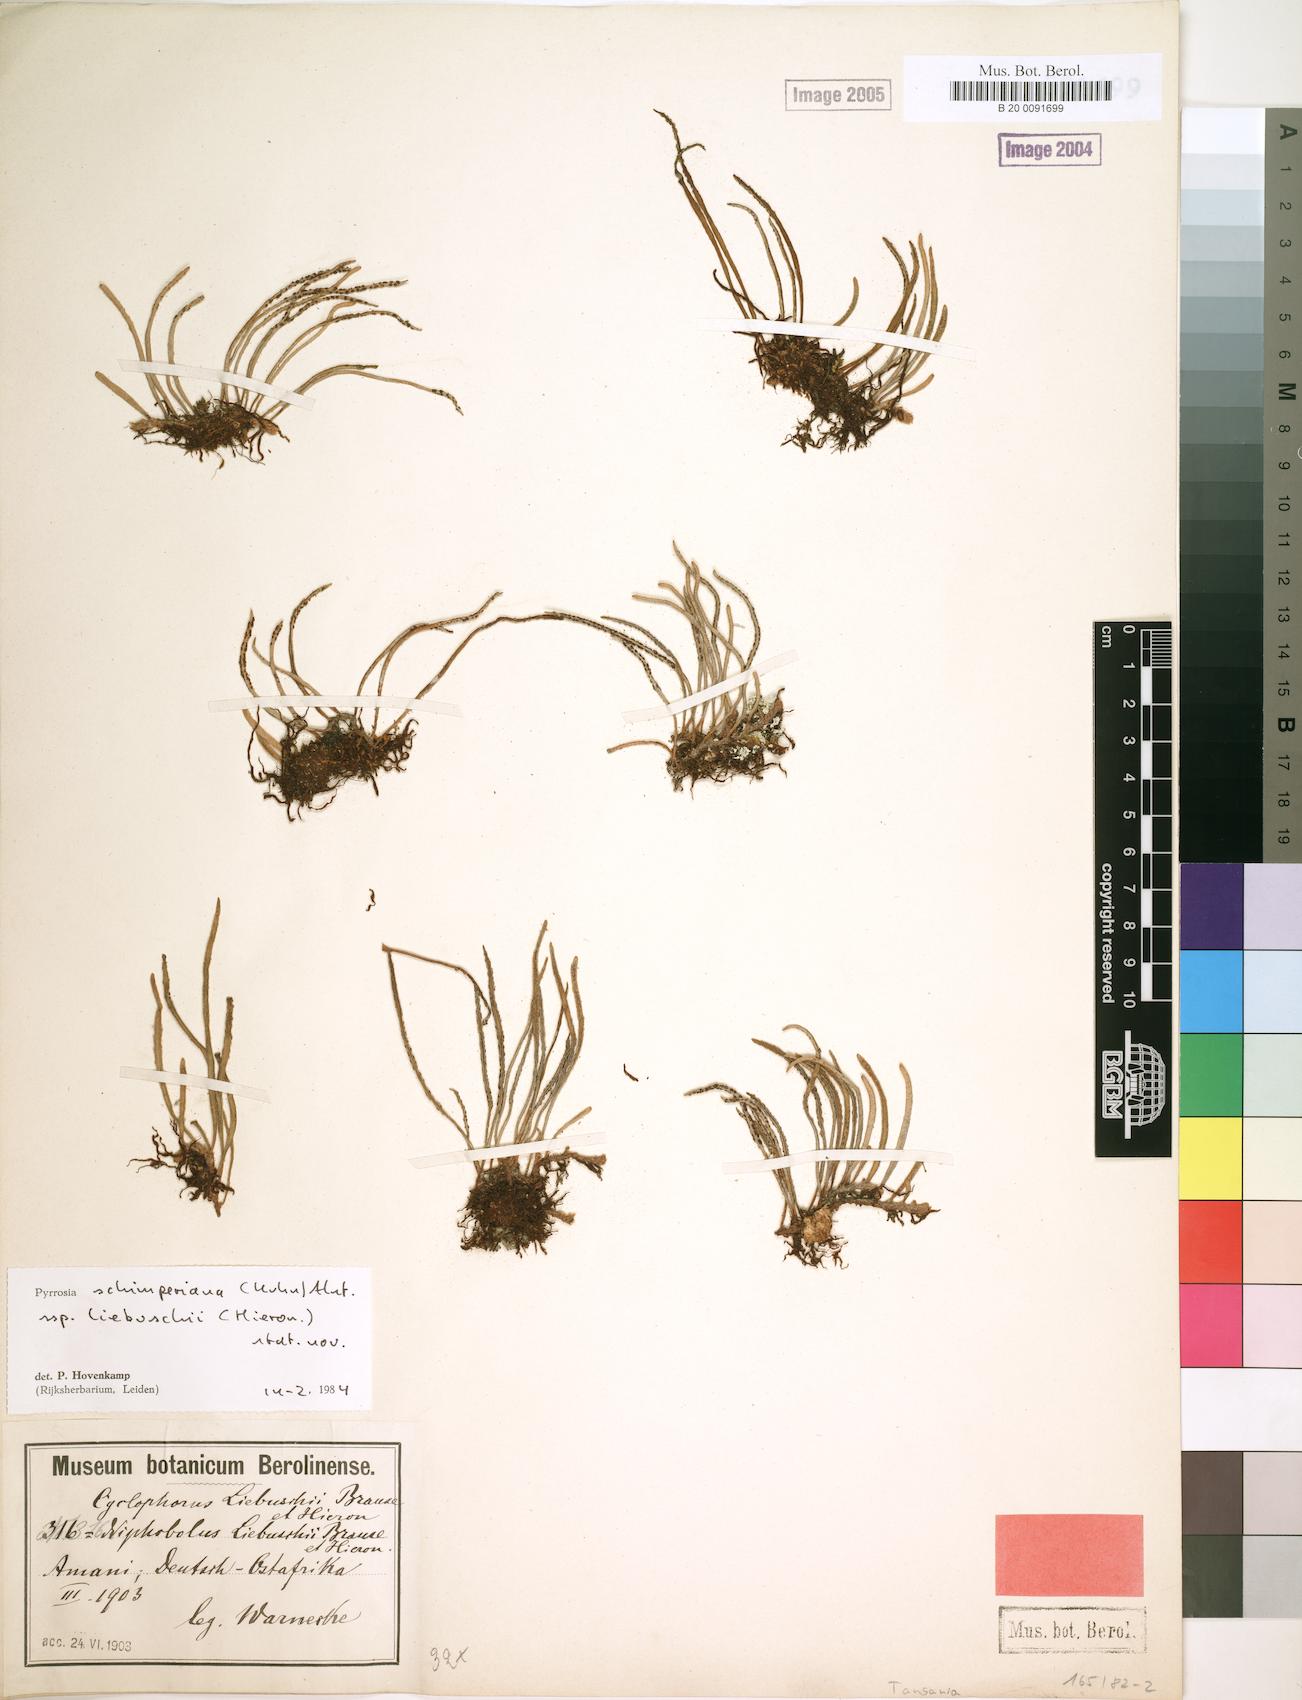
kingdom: Plantae
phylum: Tracheophyta
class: Polypodiopsida
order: Polypodiales
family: Polypodiaceae
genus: Hovenkampia
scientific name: Hovenkampia liebuschii
